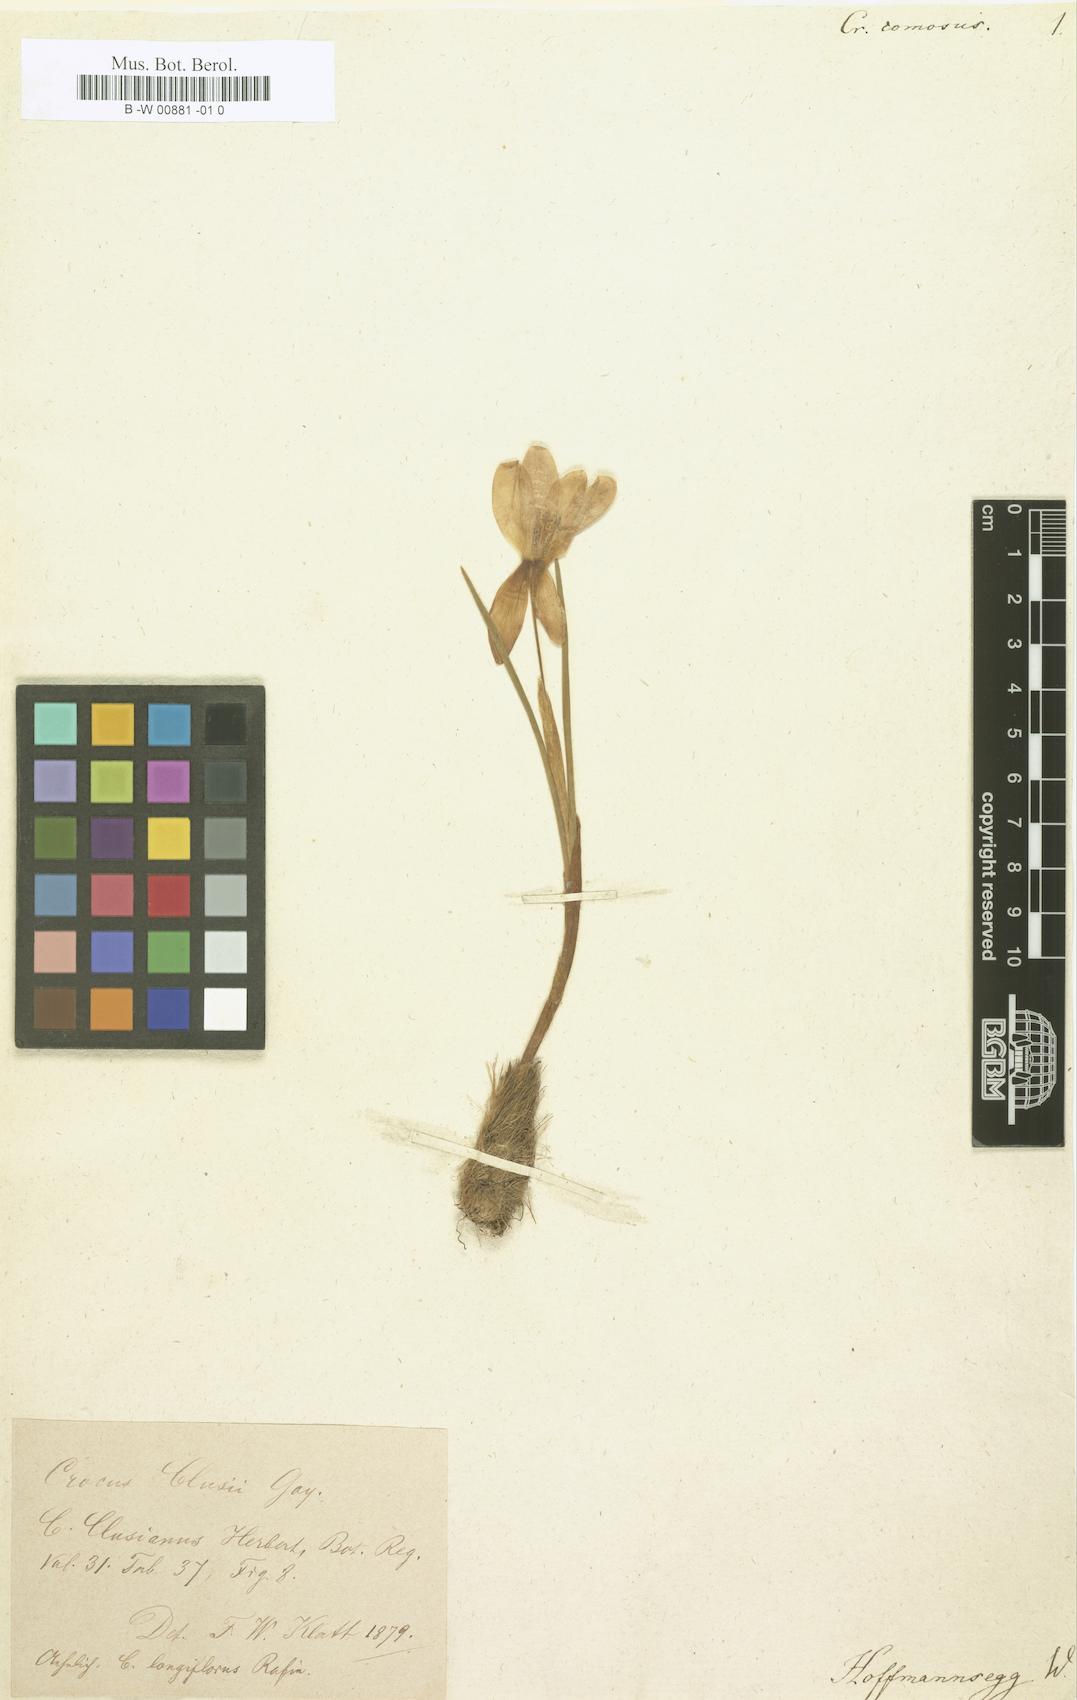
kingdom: Plantae
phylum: Tracheophyta
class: Liliopsida
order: Asparagales
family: Iridaceae
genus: Crocus
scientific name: Crocus
